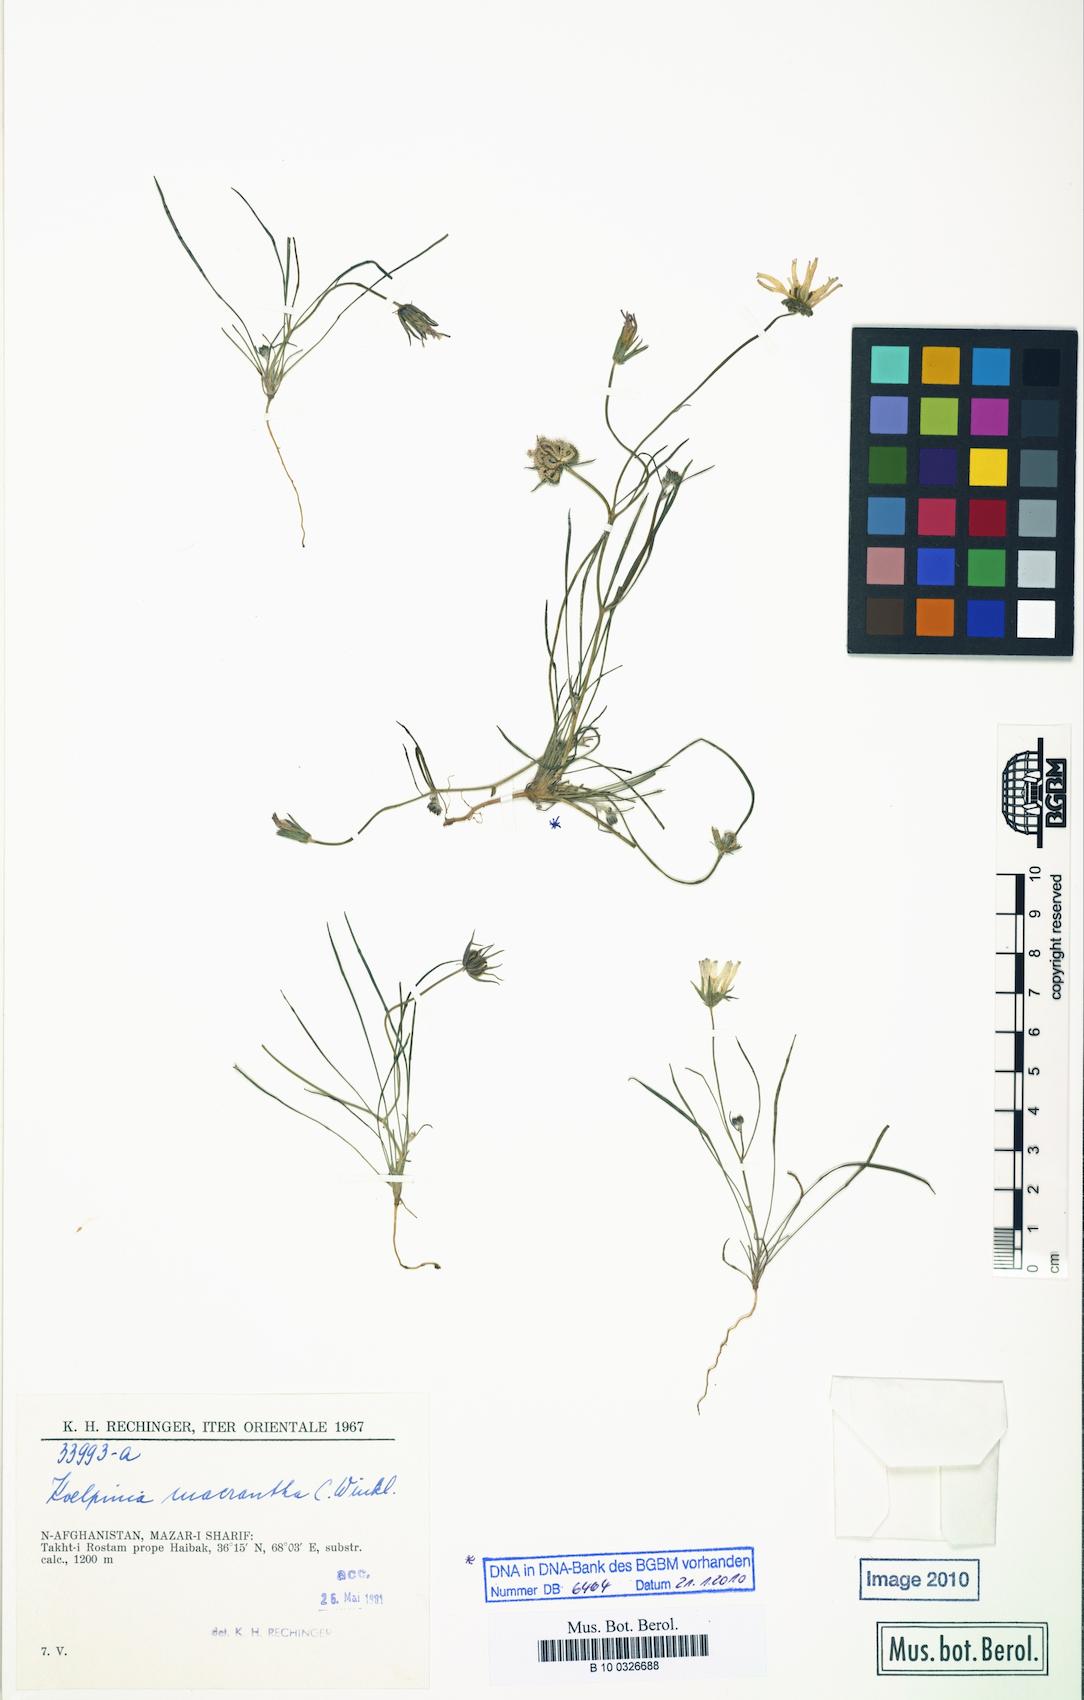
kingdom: Plantae
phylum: Tracheophyta
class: Magnoliopsida
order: Asterales
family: Asteraceae
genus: Koelpinia
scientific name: Koelpinia macrantha
